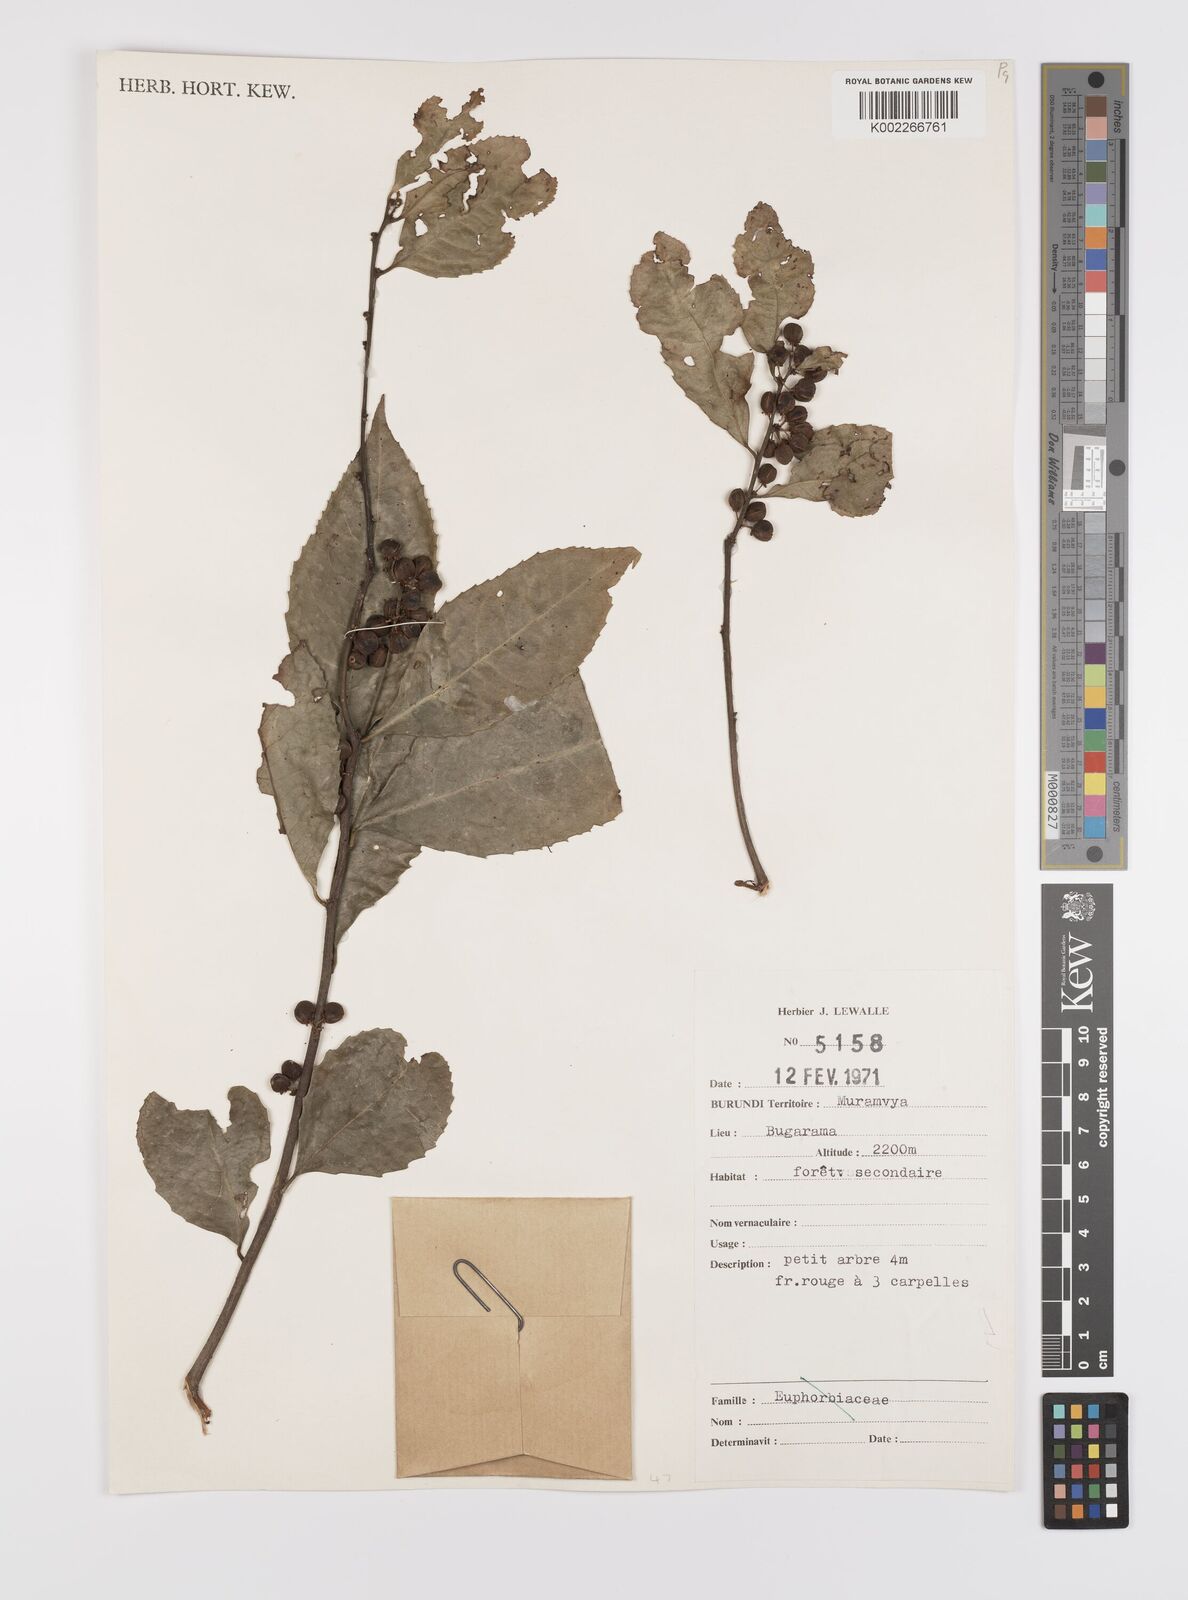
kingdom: Plantae
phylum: Tracheophyta
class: Magnoliopsida
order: Celastrales
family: Celastraceae
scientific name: Celastraceae
